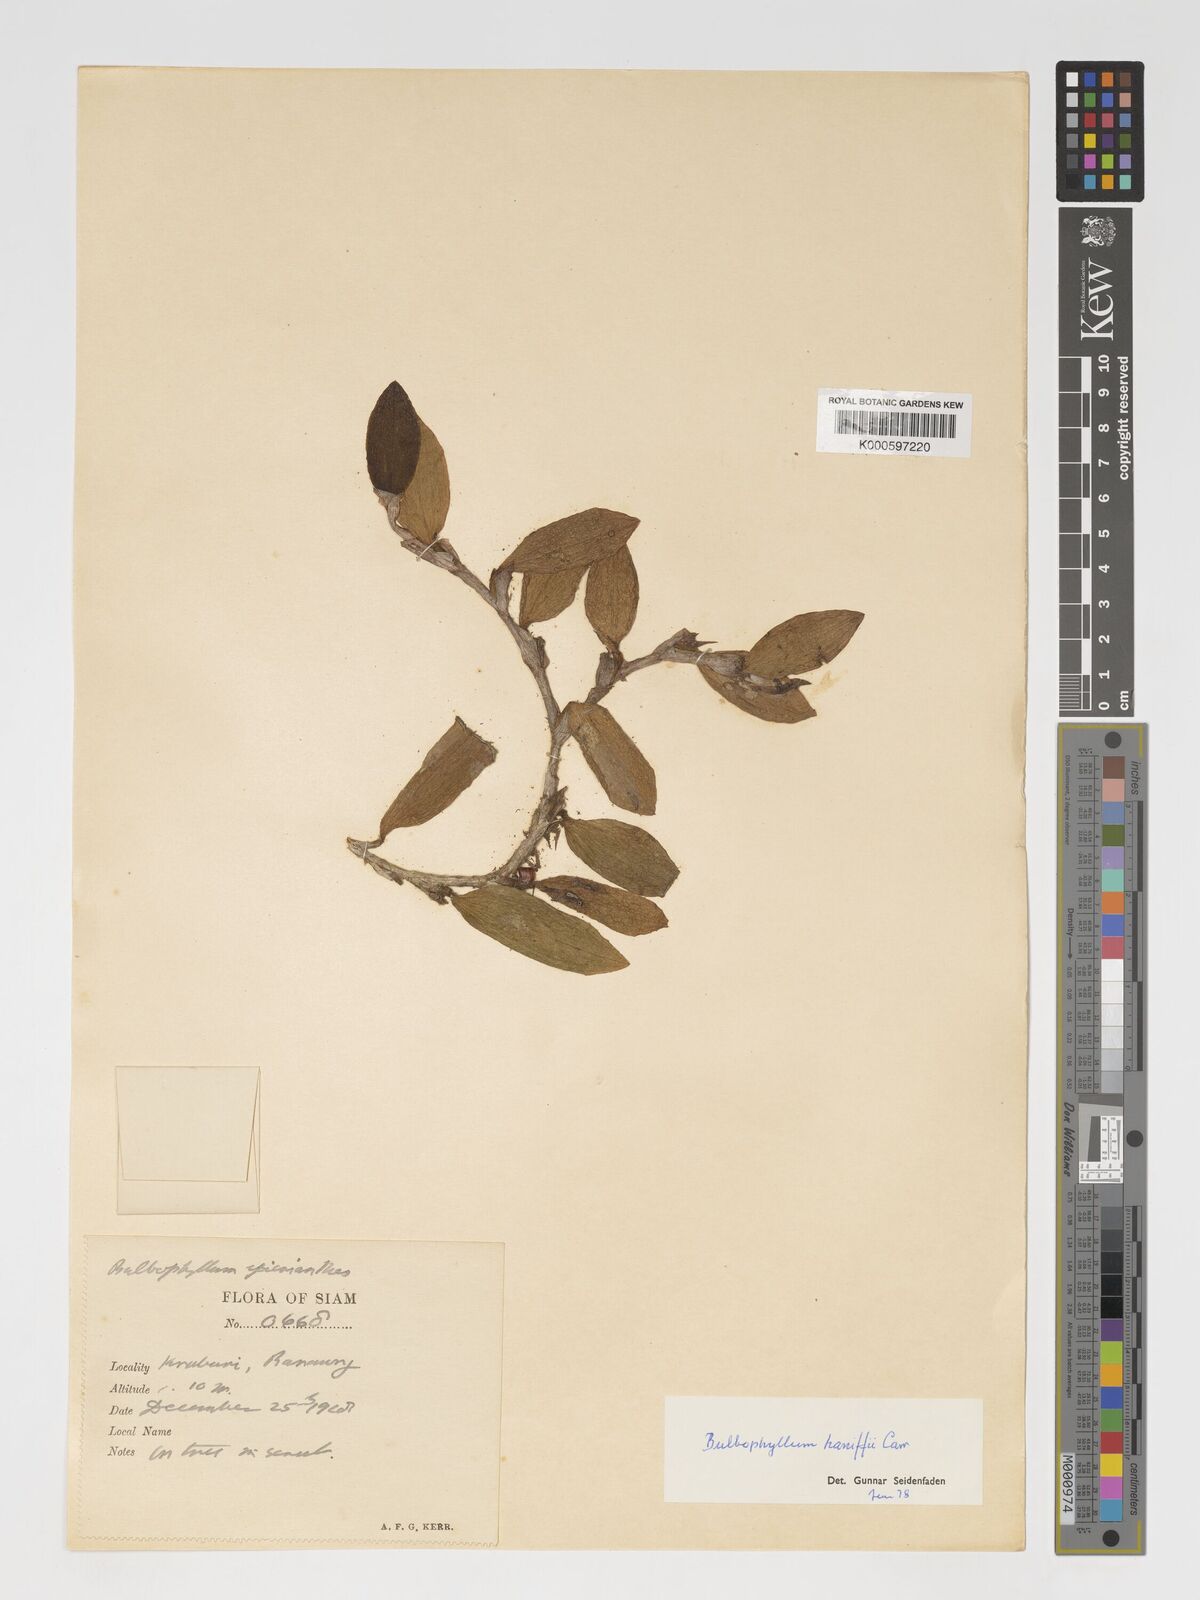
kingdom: Plantae
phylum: Tracheophyta
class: Liliopsida
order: Asparagales
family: Orchidaceae
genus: Bulbophyllum
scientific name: Bulbophyllum haniffii
